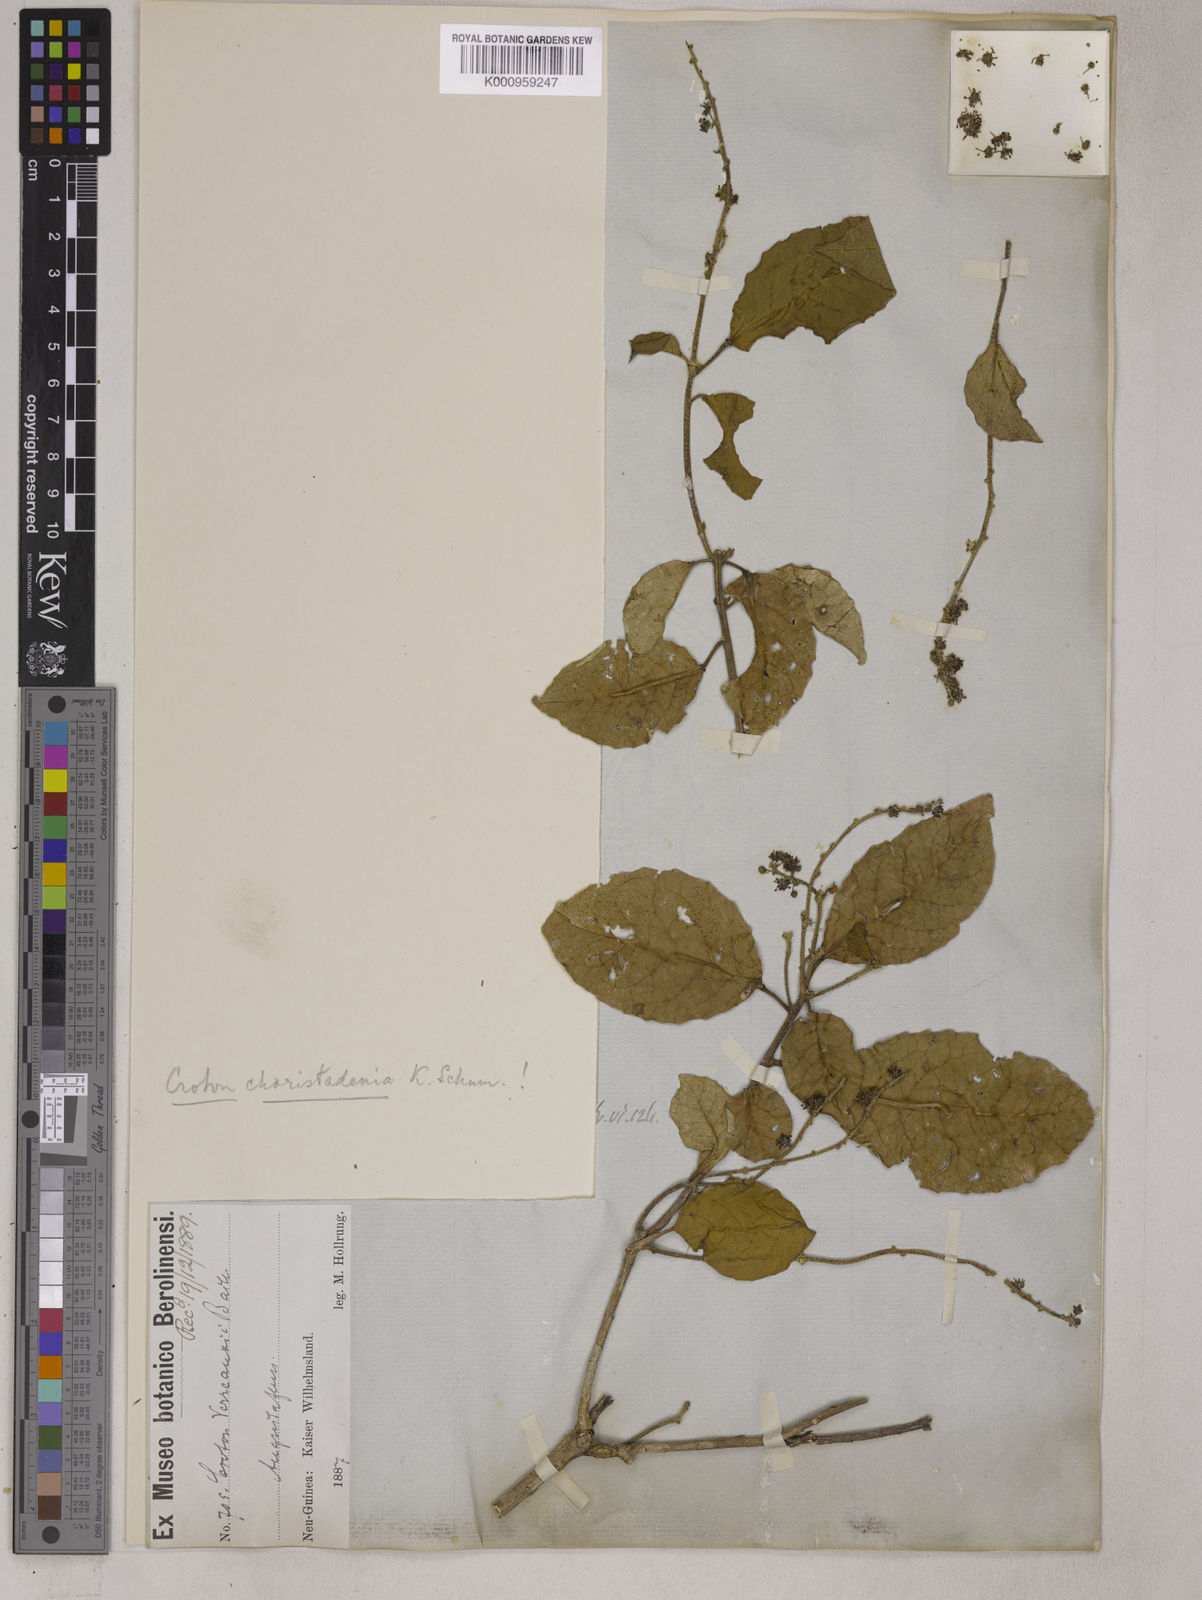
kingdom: Plantae
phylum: Tracheophyta
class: Magnoliopsida
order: Malpighiales
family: Euphorbiaceae
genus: Croton
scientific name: Croton choristadenius
